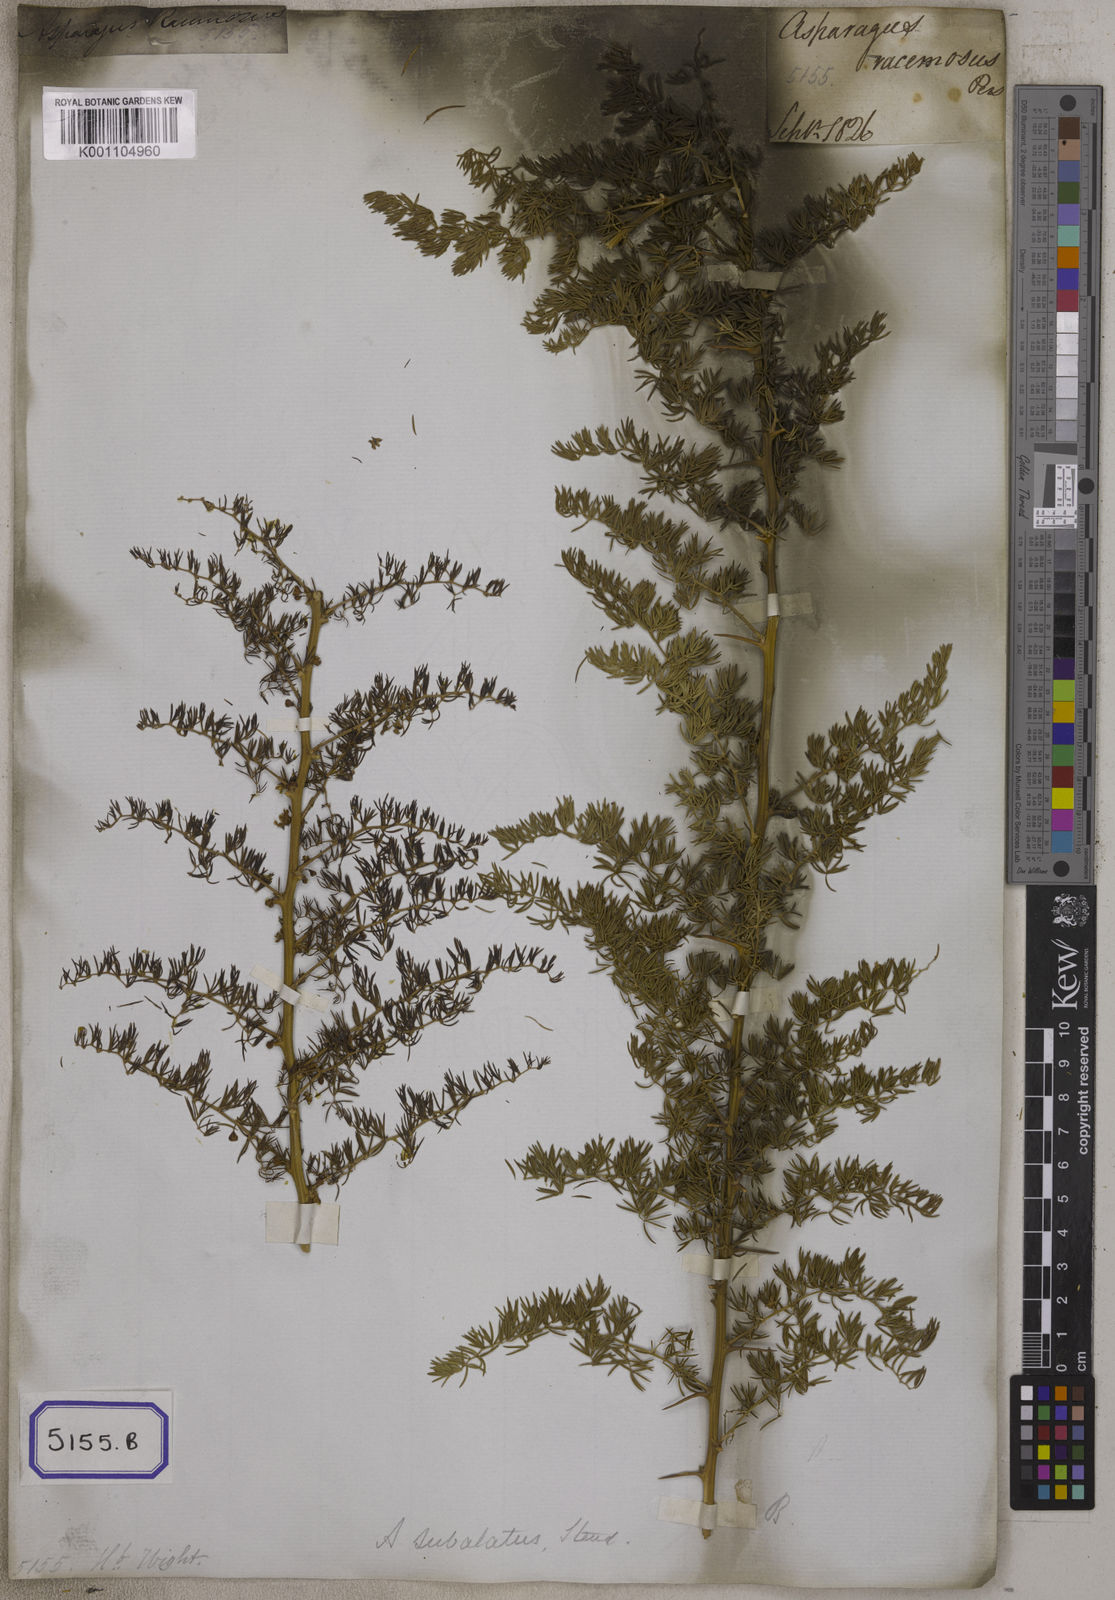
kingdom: Plantae
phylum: Tracheophyta
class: Liliopsida
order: Asparagales
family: Asparagaceae
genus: Asparagus
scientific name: Asparagus
